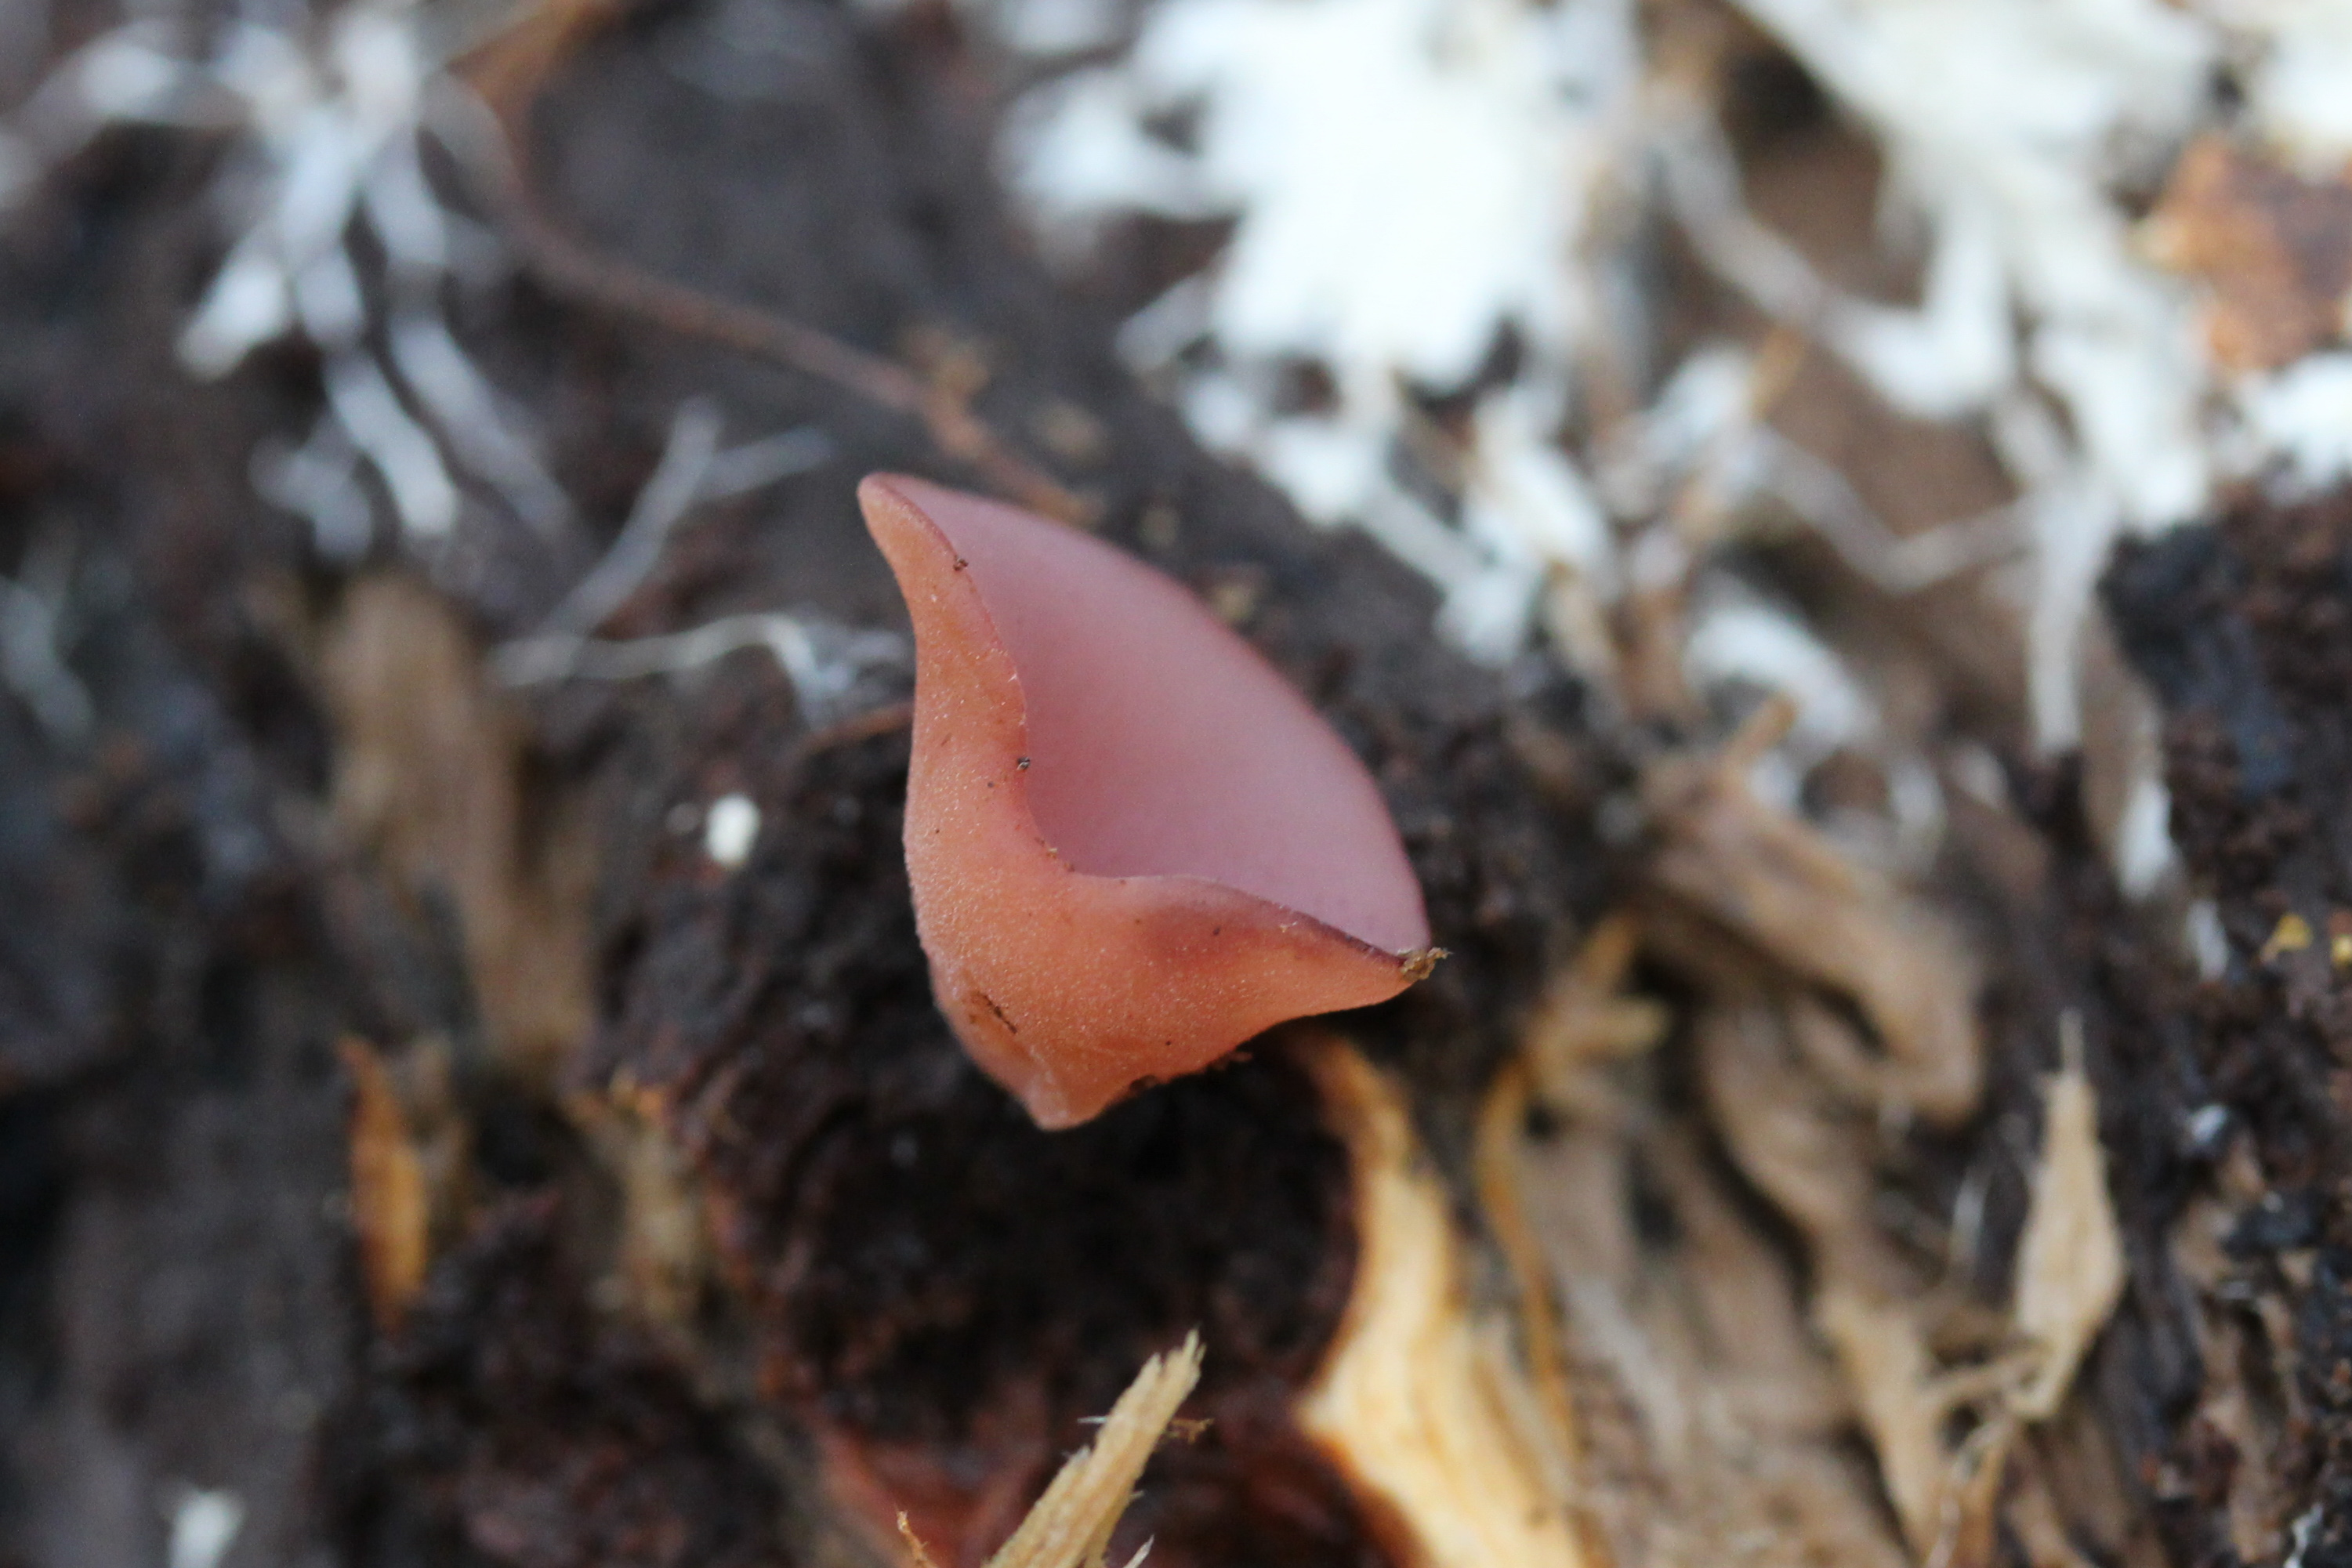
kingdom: Fungi
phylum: Ascomycota
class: Leotiomycetes
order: Helotiales
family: Gelatinodiscaceae
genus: Ascocoryne
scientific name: Ascocoryne cylichnium
